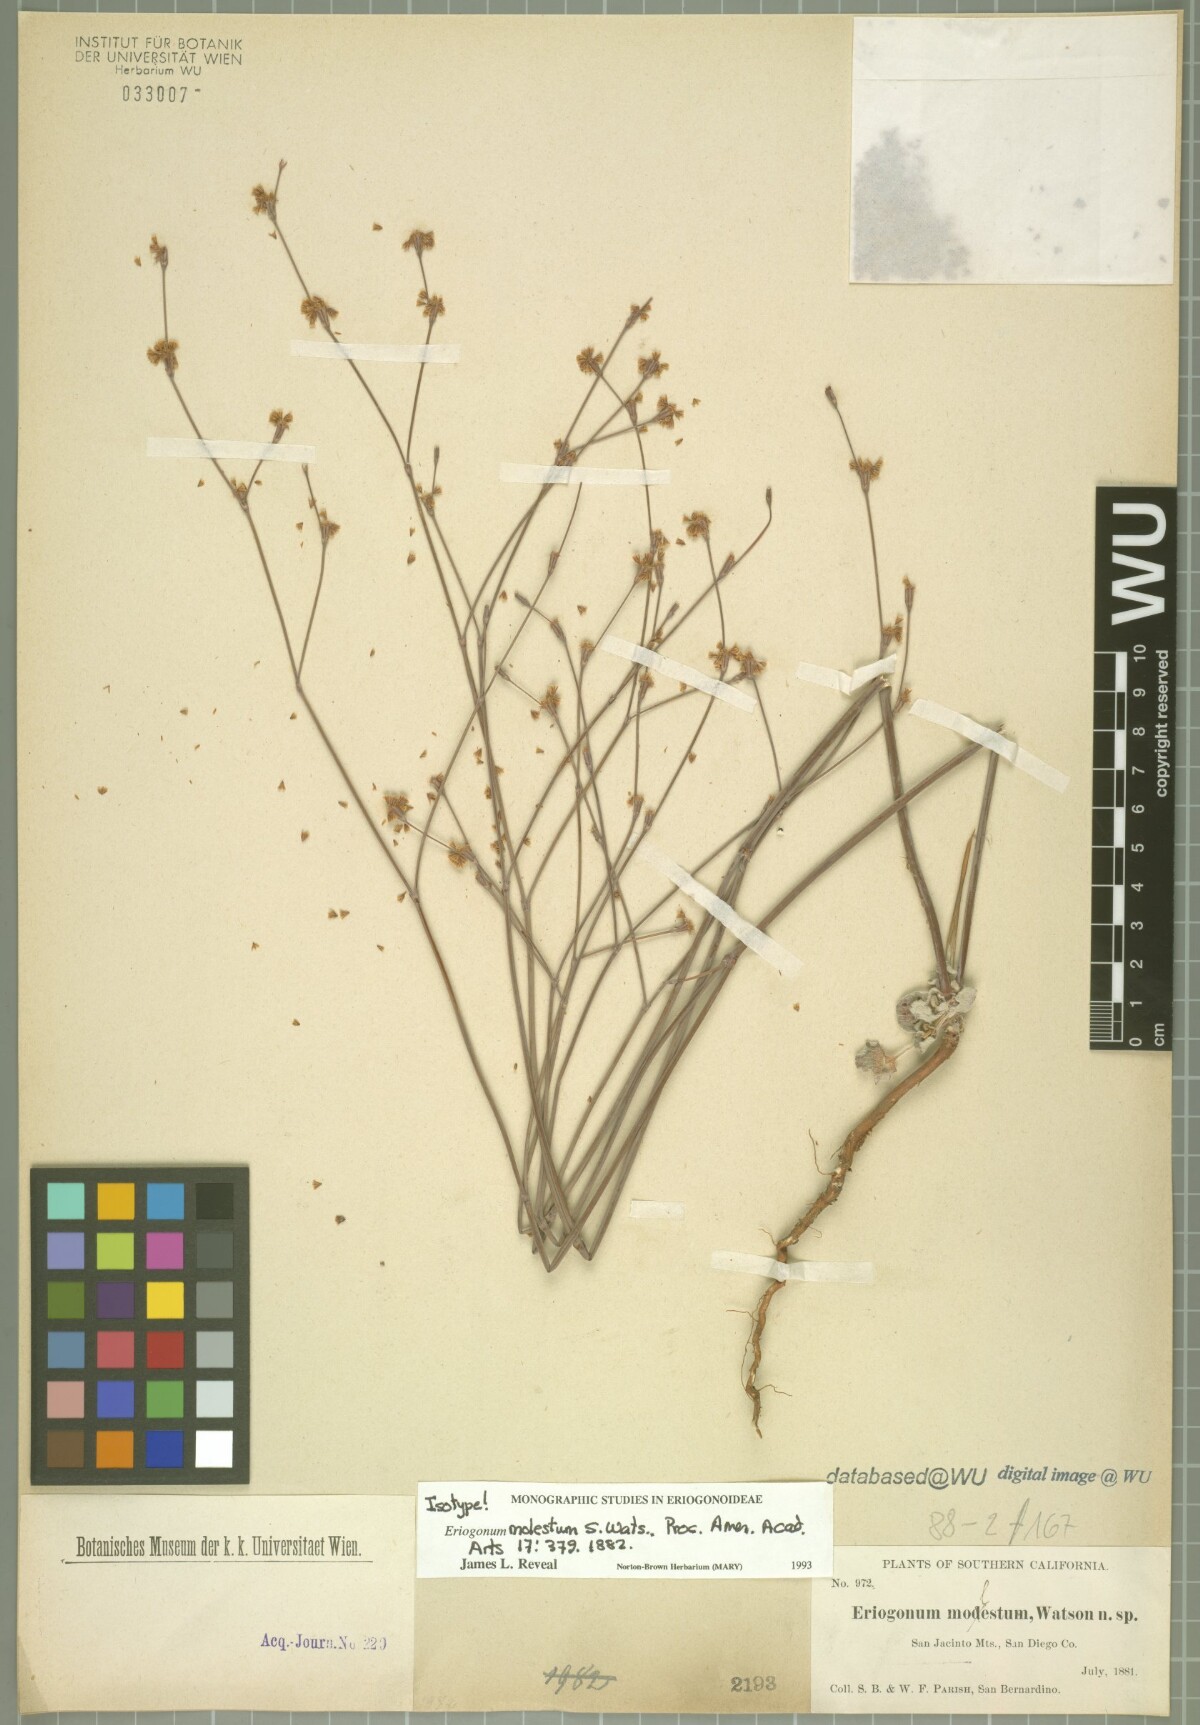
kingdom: Plantae
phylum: Tracheophyta
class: Magnoliopsida
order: Caryophyllales
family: Polygonaceae
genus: Eriogonum
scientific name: Eriogonum molestum
